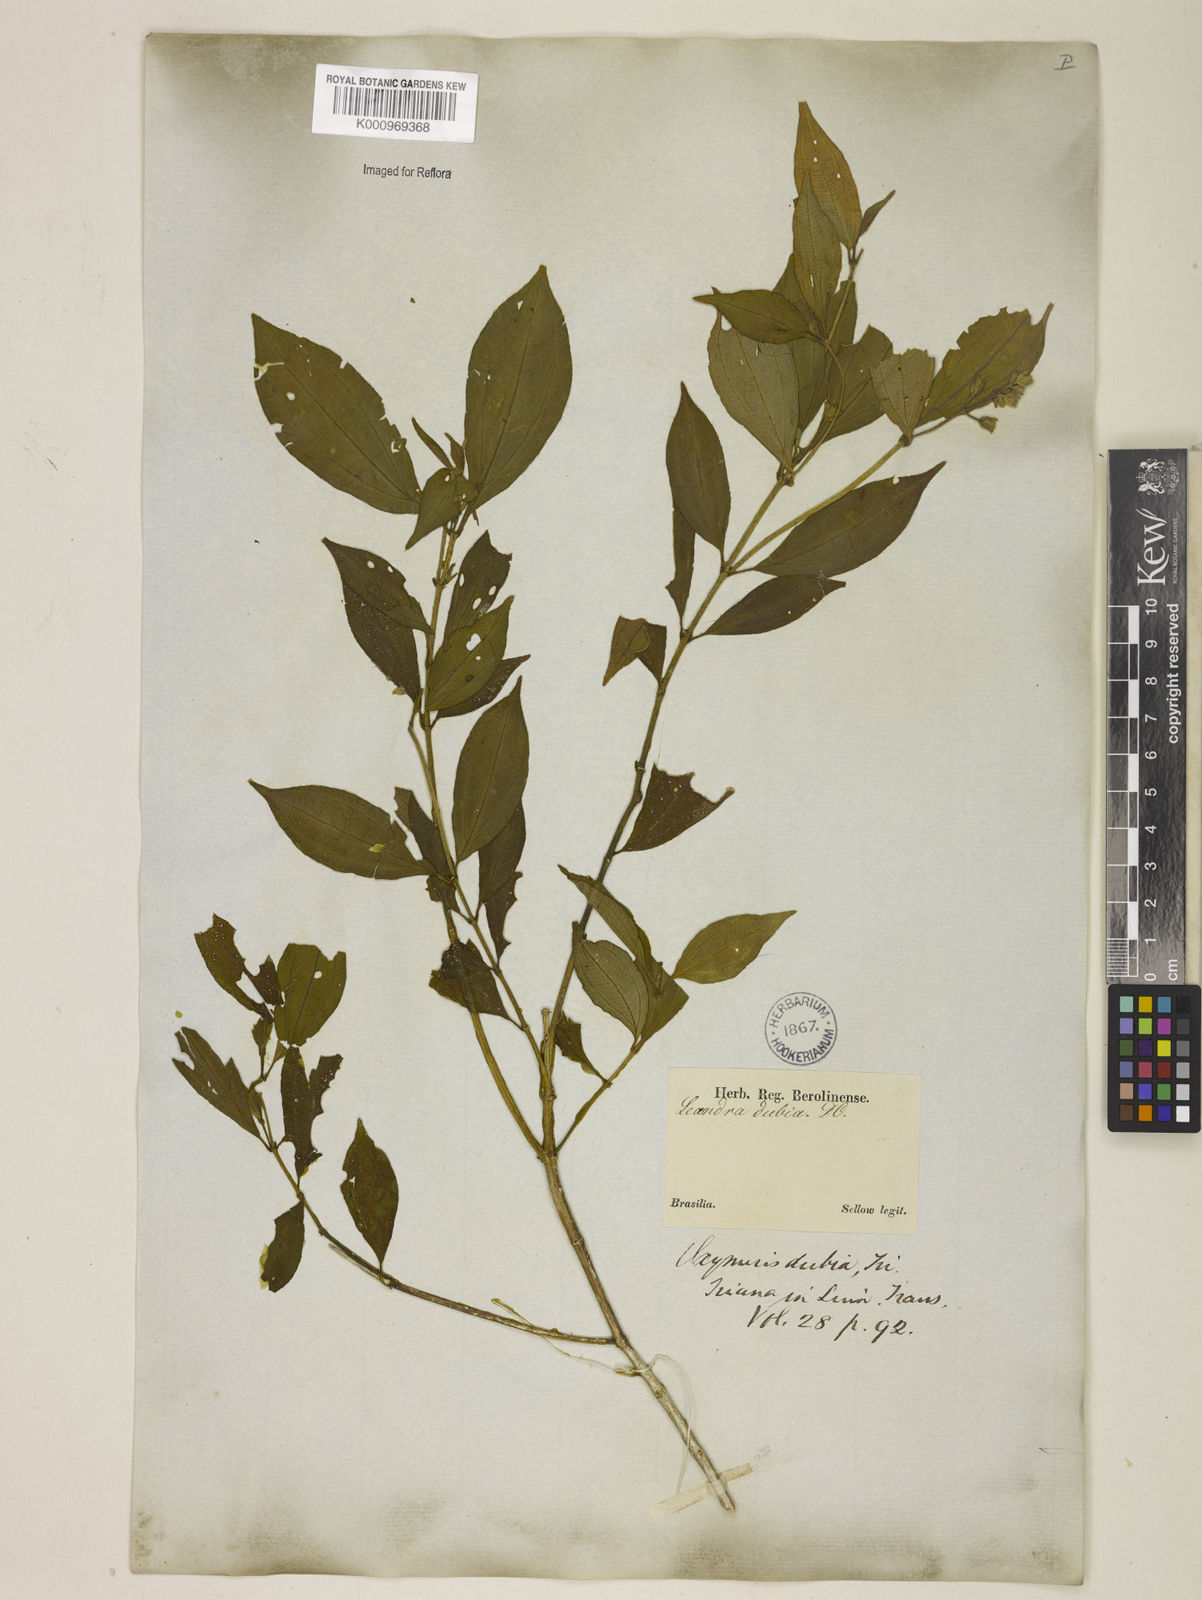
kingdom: Plantae
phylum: Tracheophyta
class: Magnoliopsida
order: Myrtales
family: Melastomataceae
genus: Miconia
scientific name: Miconia dubia
